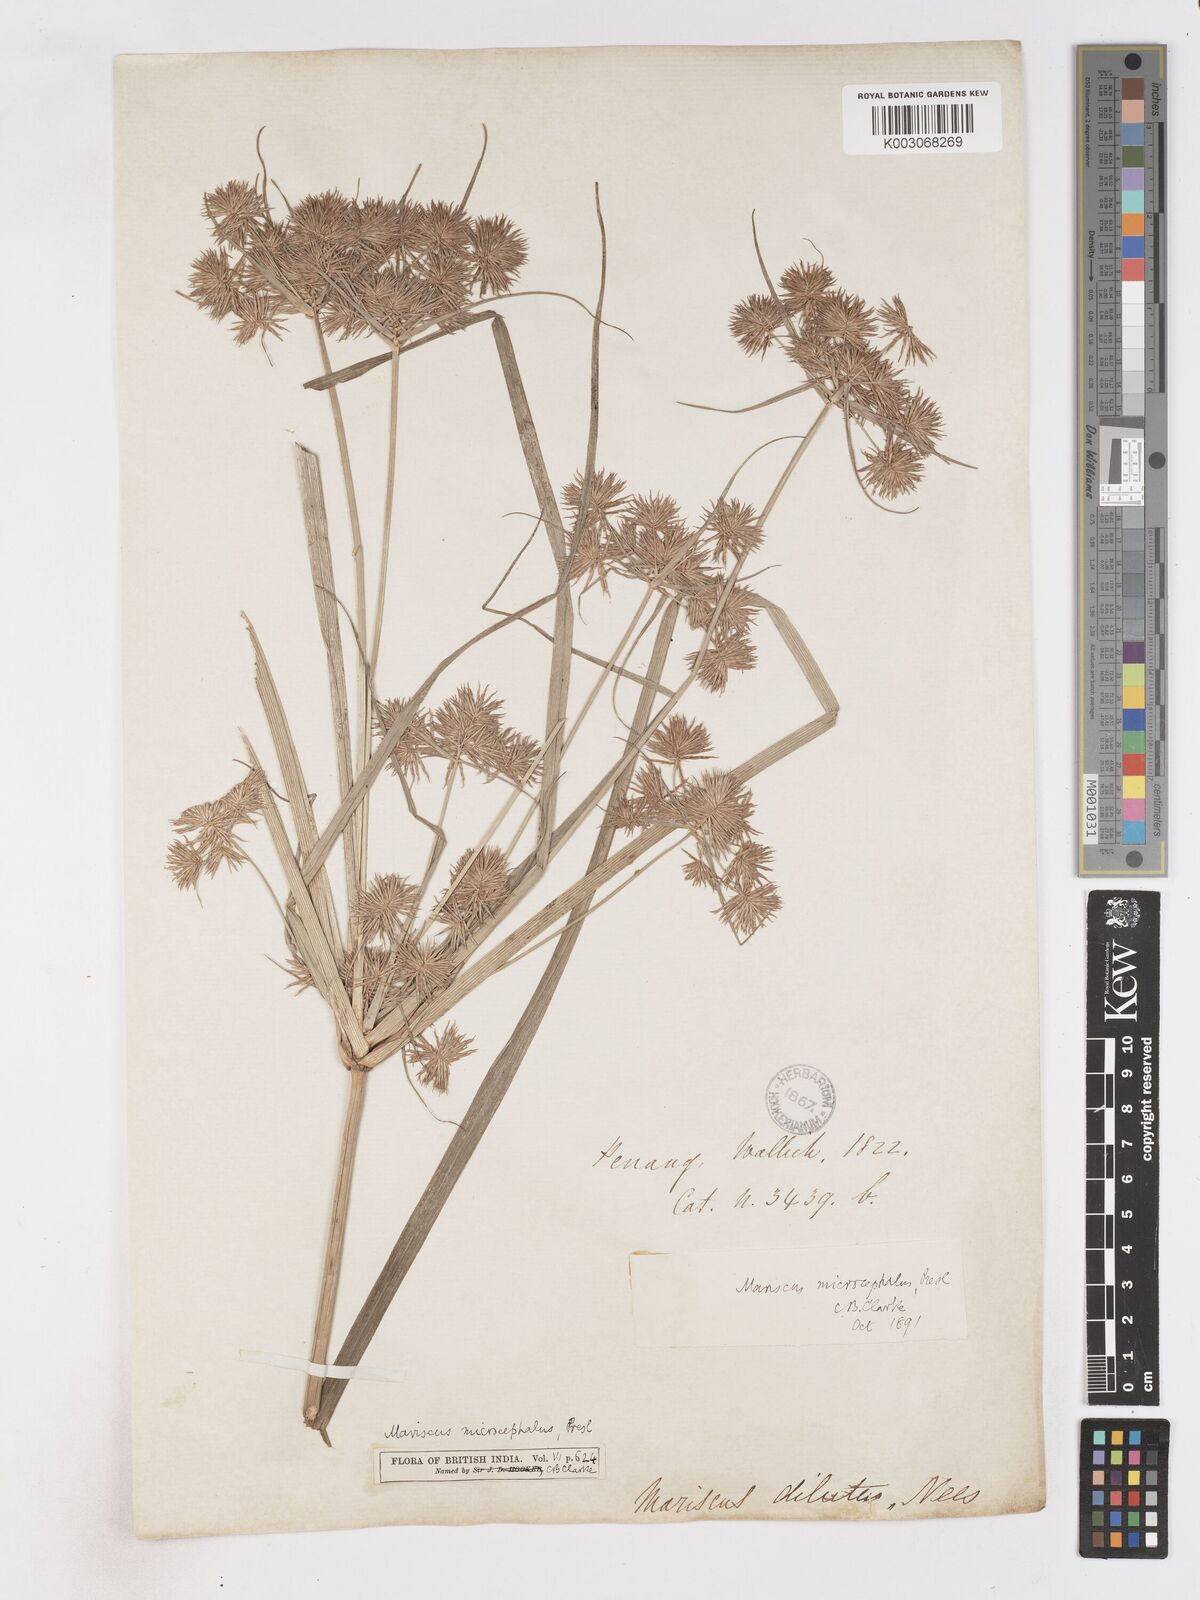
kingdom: Plantae
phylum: Tracheophyta
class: Liliopsida
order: Poales
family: Cyperaceae
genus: Cyperus
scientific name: Cyperus compactus
